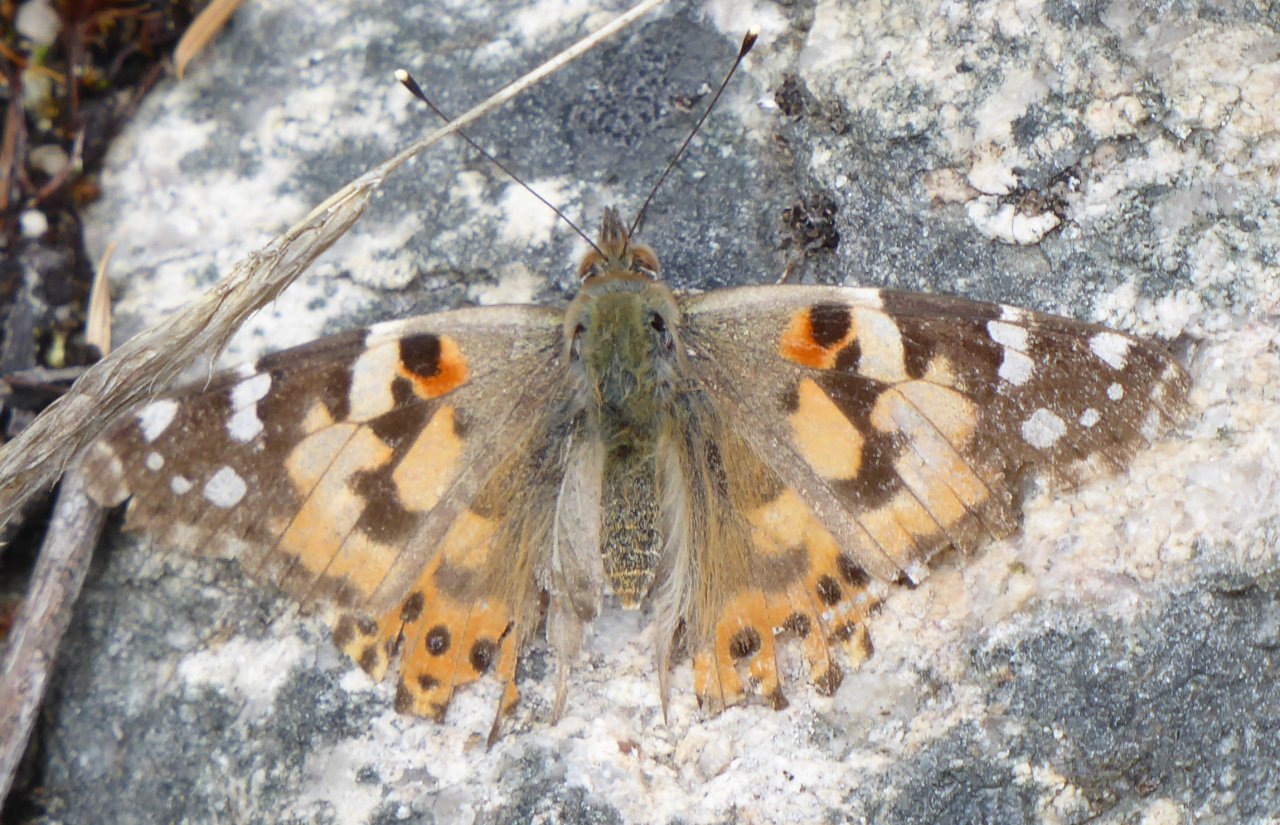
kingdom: Animalia
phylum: Arthropoda
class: Insecta
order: Lepidoptera
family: Nymphalidae
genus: Vanessa
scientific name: Vanessa cardui
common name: Painted Lady
